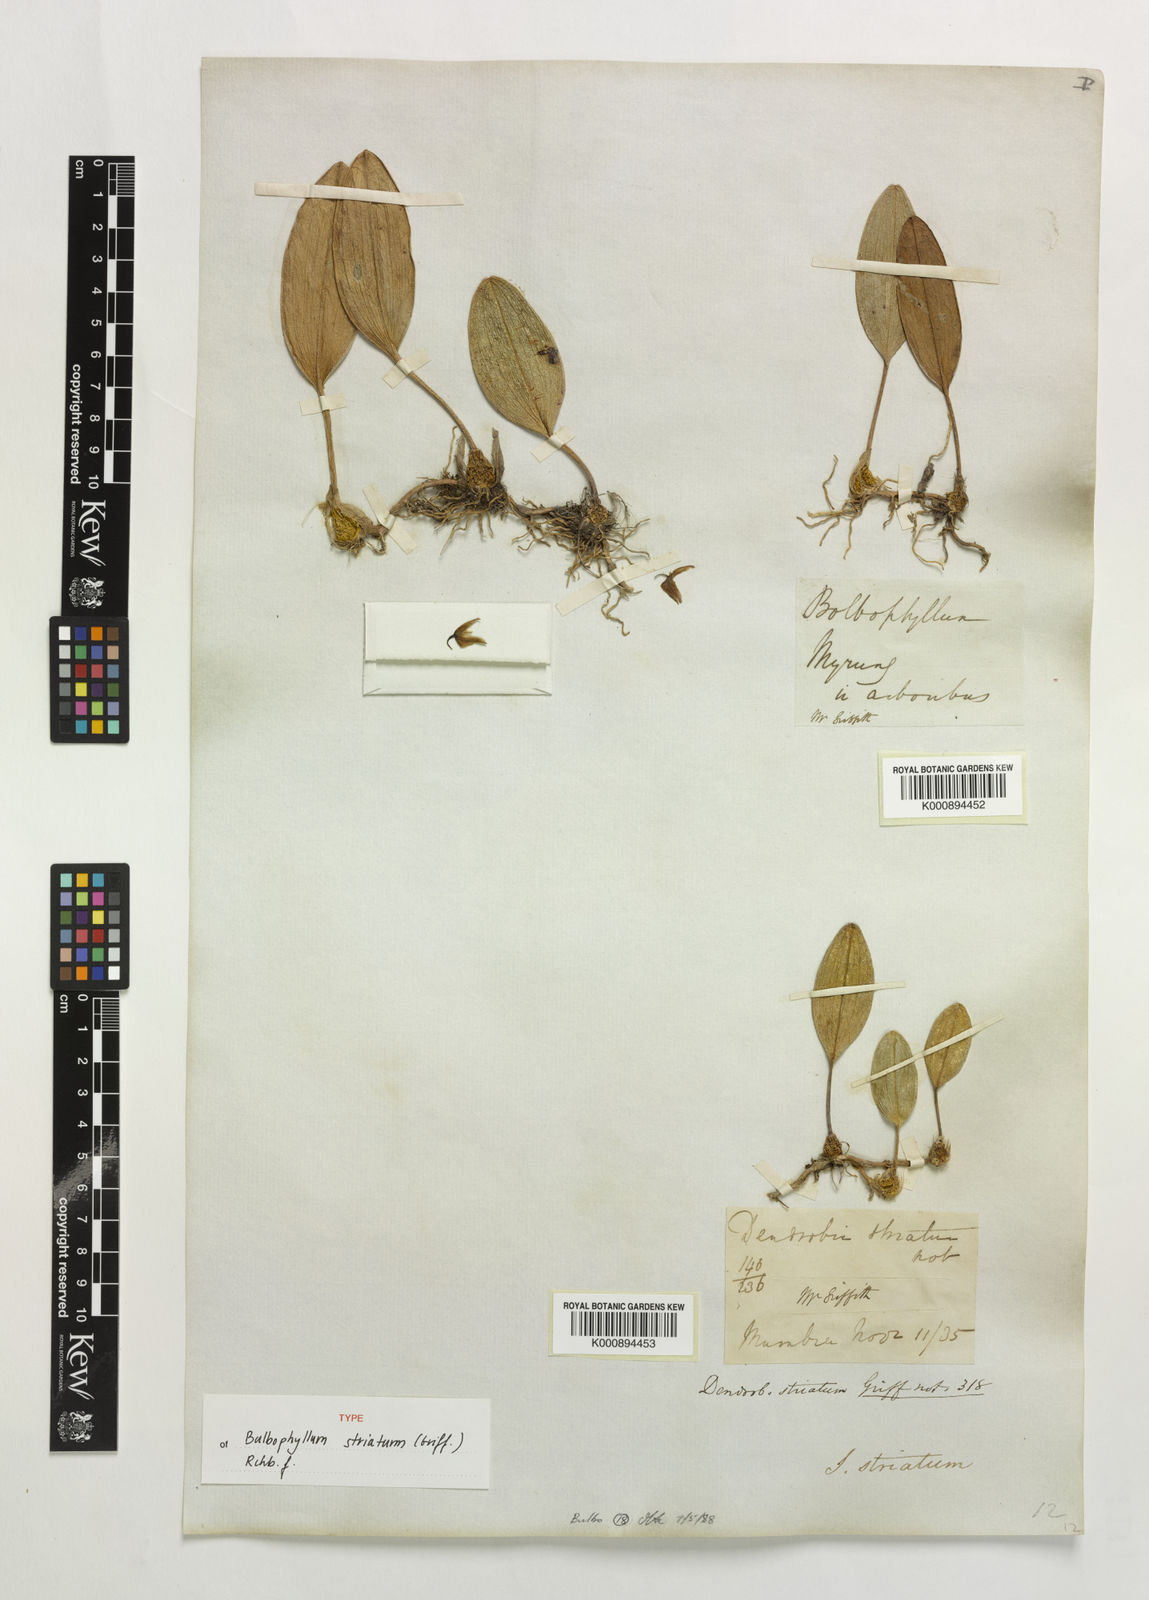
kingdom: Plantae
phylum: Tracheophyta
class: Liliopsida
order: Asparagales
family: Orchidaceae
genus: Bulbophyllum
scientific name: Bulbophyllum striatum
